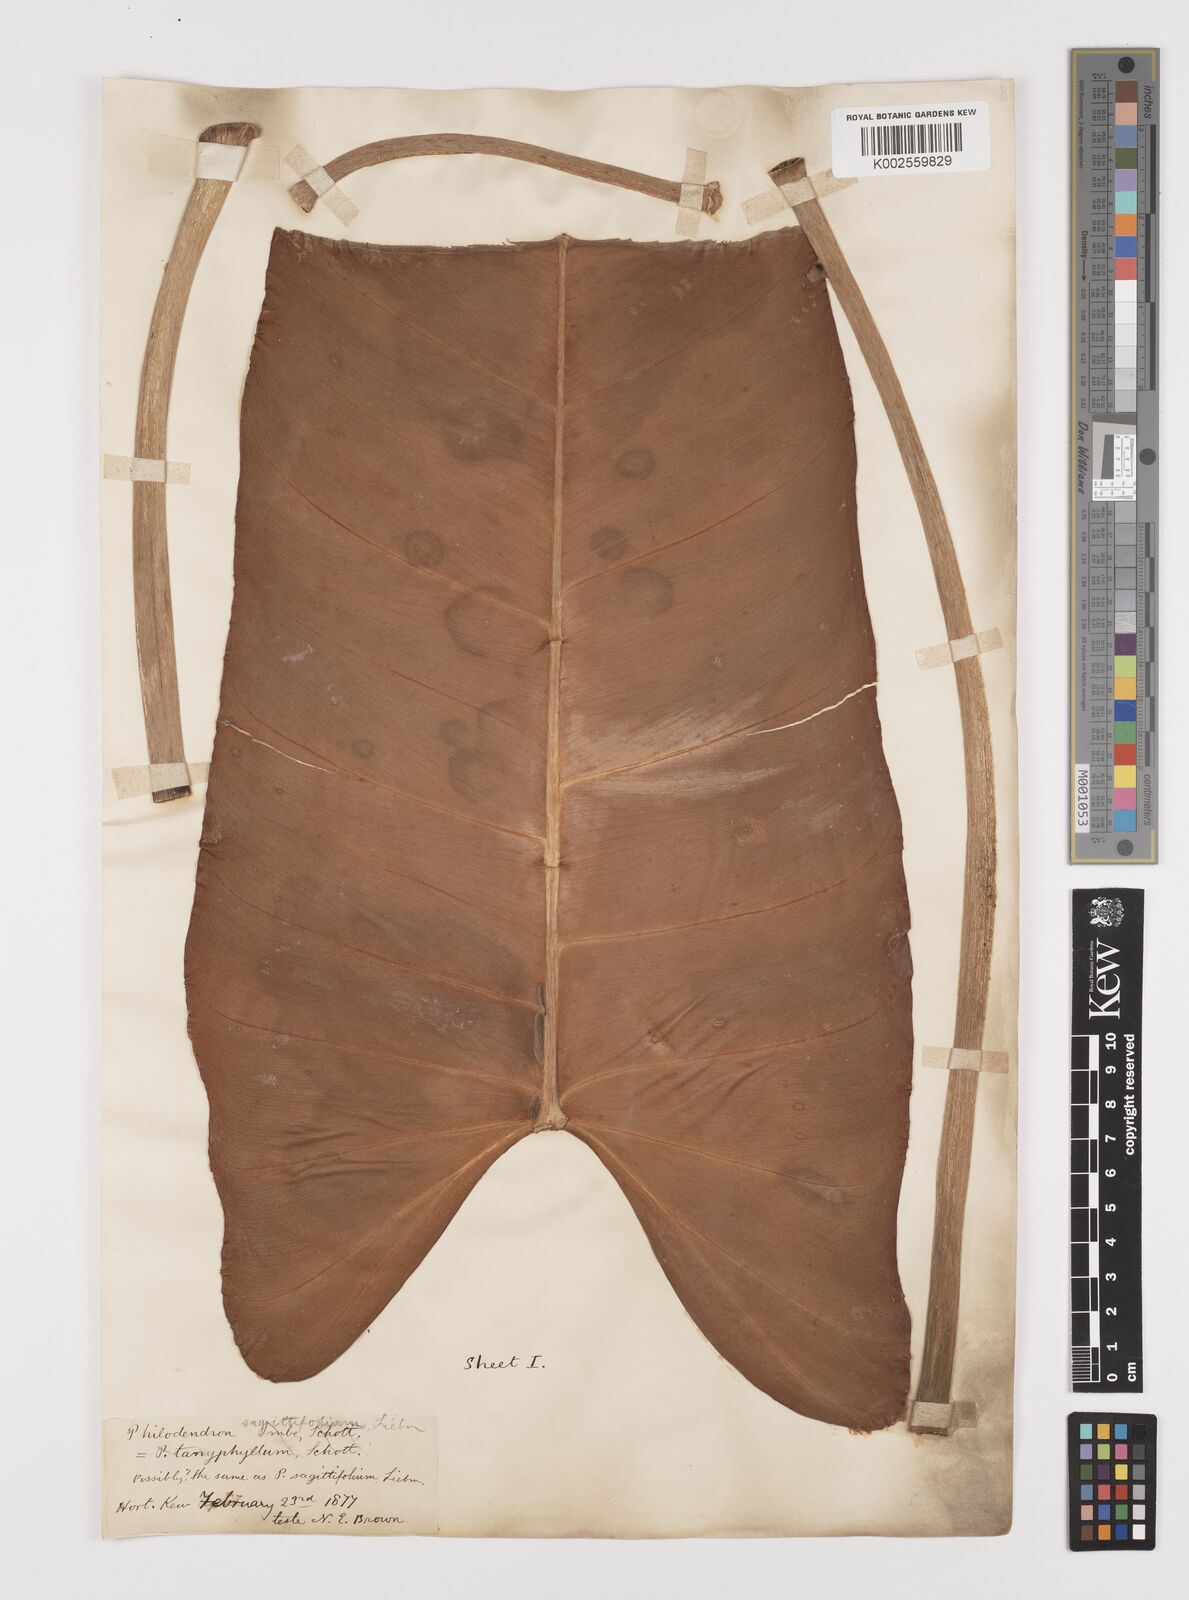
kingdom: Plantae
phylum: Tracheophyta
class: Liliopsida
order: Alismatales
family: Araceae
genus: Philodendron
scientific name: Philodendron sagittifolium
